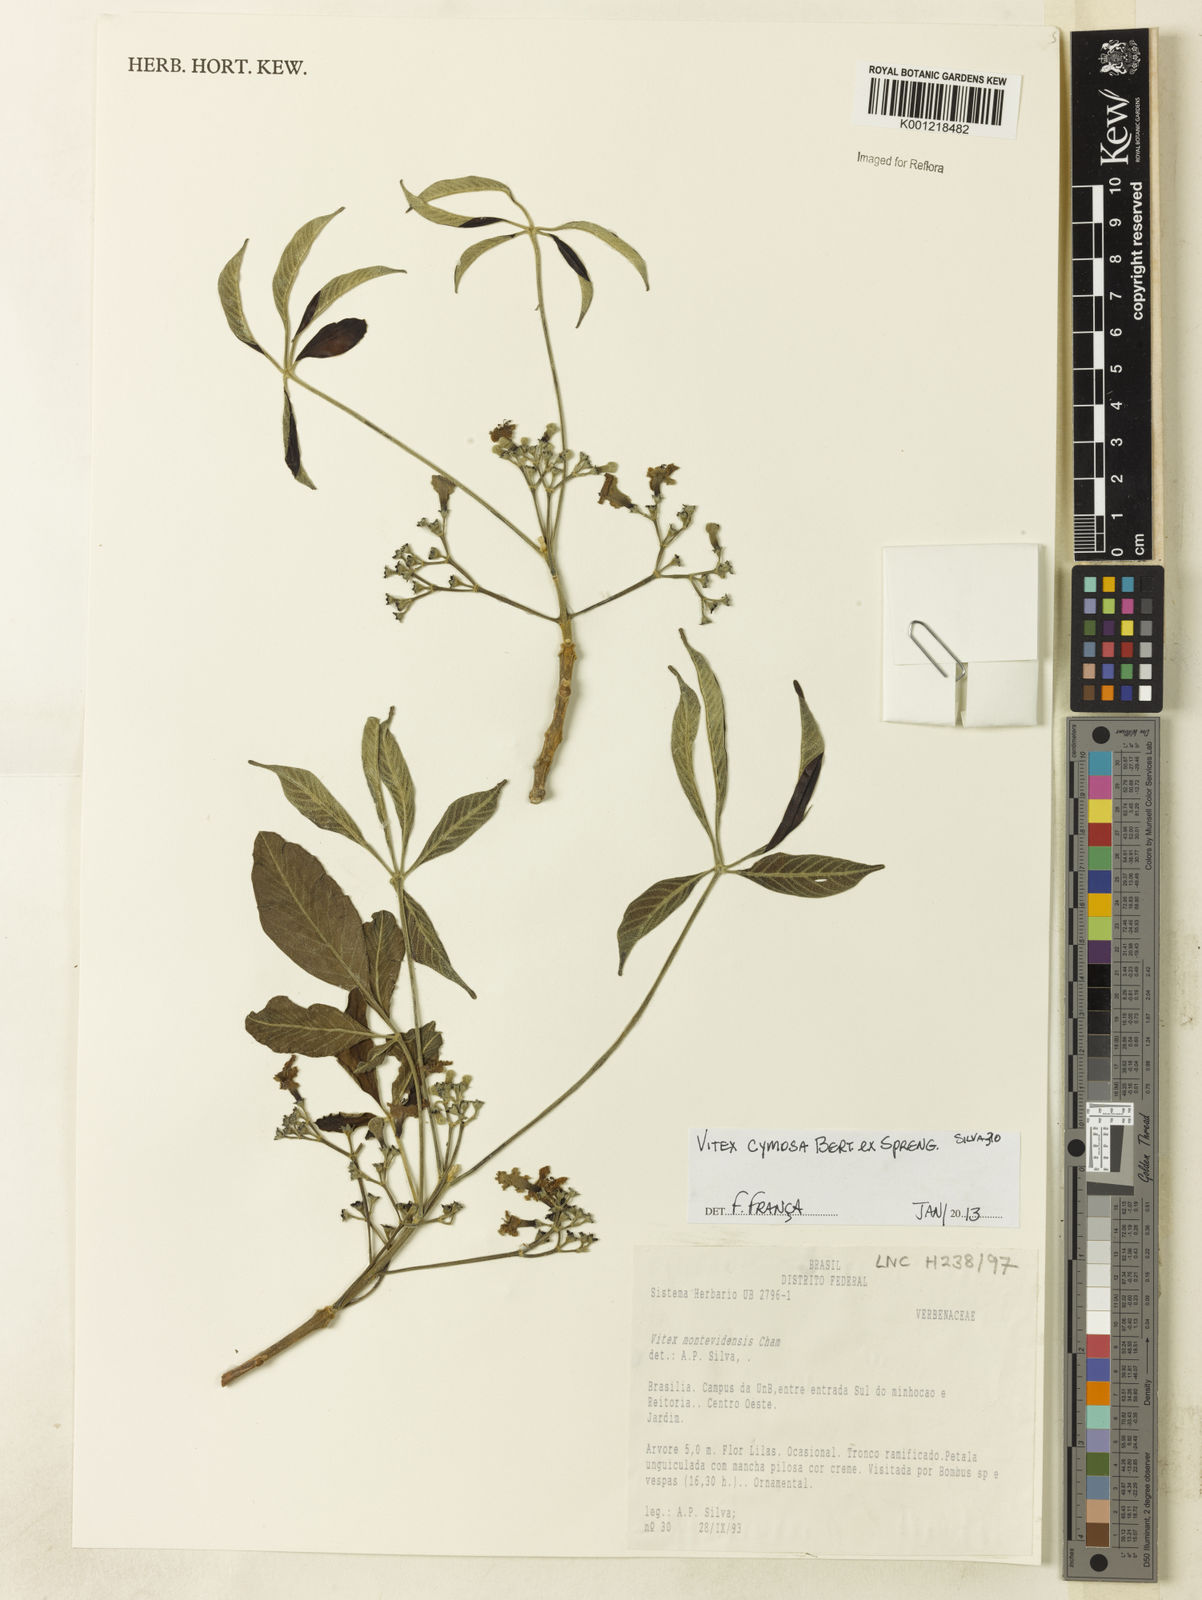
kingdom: Plantae
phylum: Tracheophyta
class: Magnoliopsida
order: Lamiales
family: Lamiaceae
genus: Vitex
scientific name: Vitex cymosa
